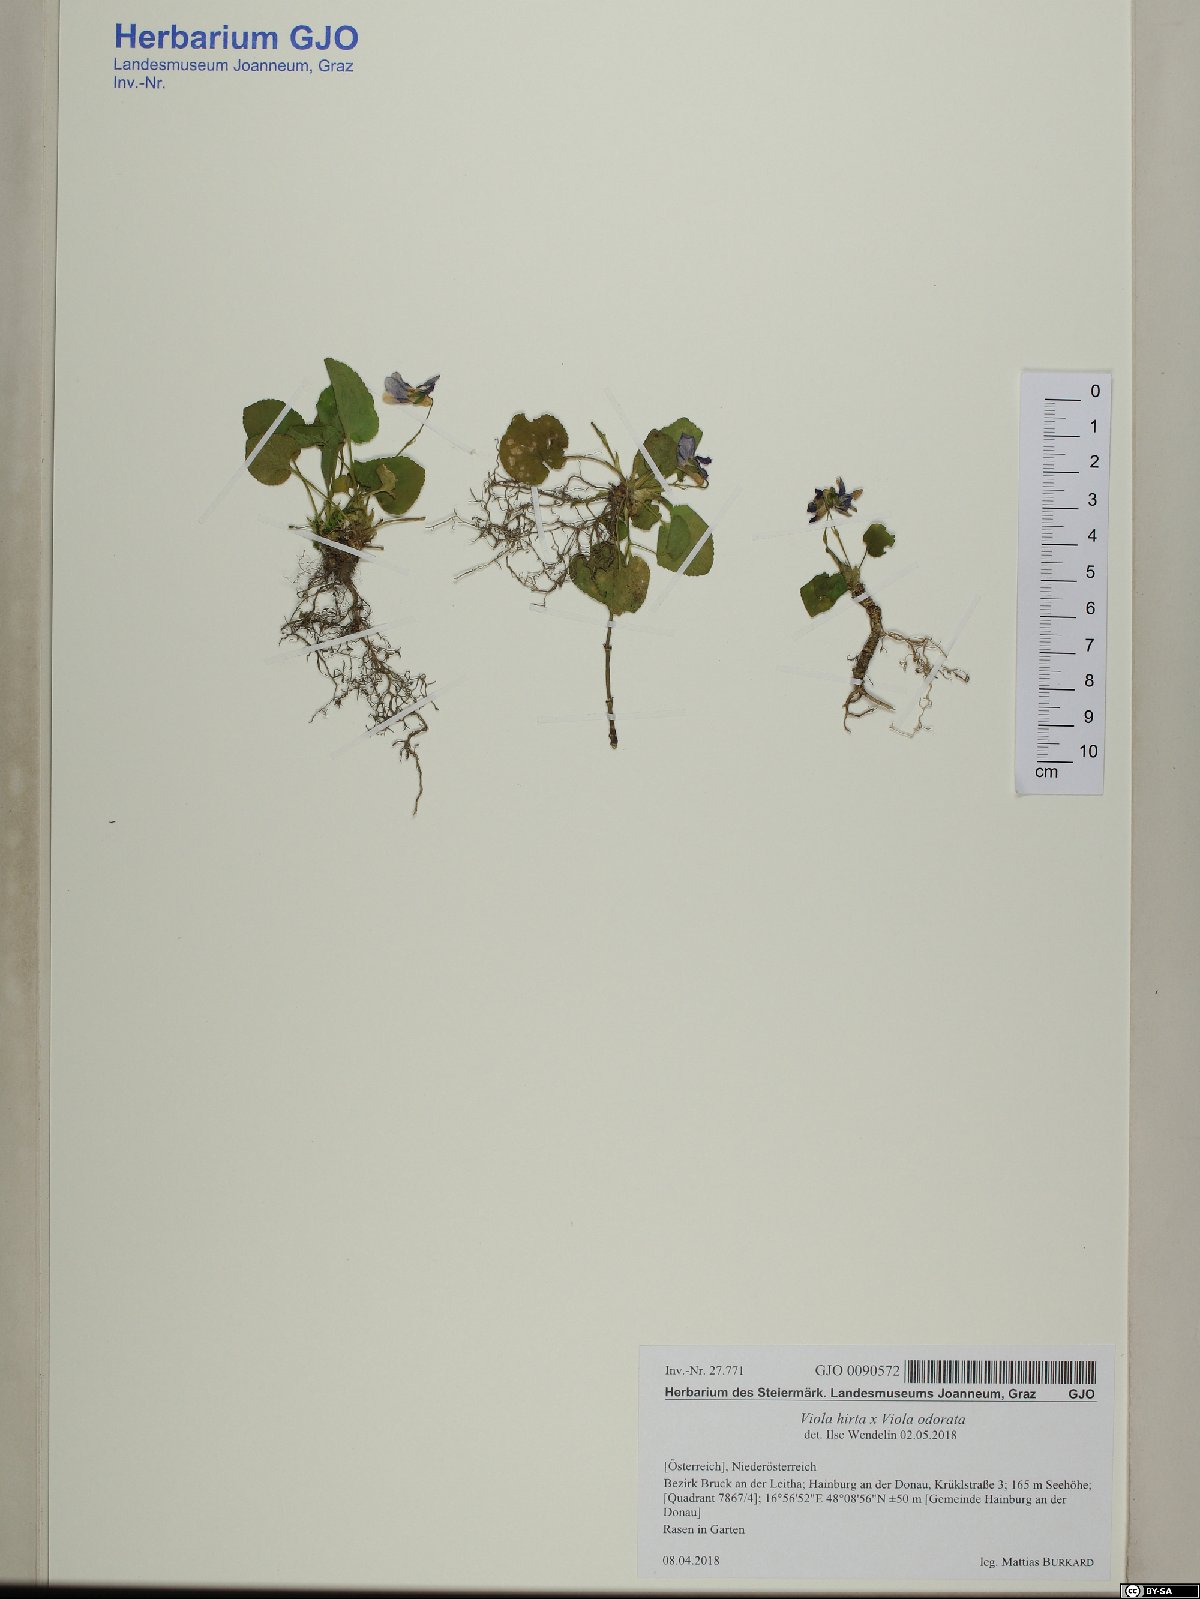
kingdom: Plantae
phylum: Tracheophyta
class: Magnoliopsida
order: Malpighiales
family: Violaceae
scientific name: Violaceae
